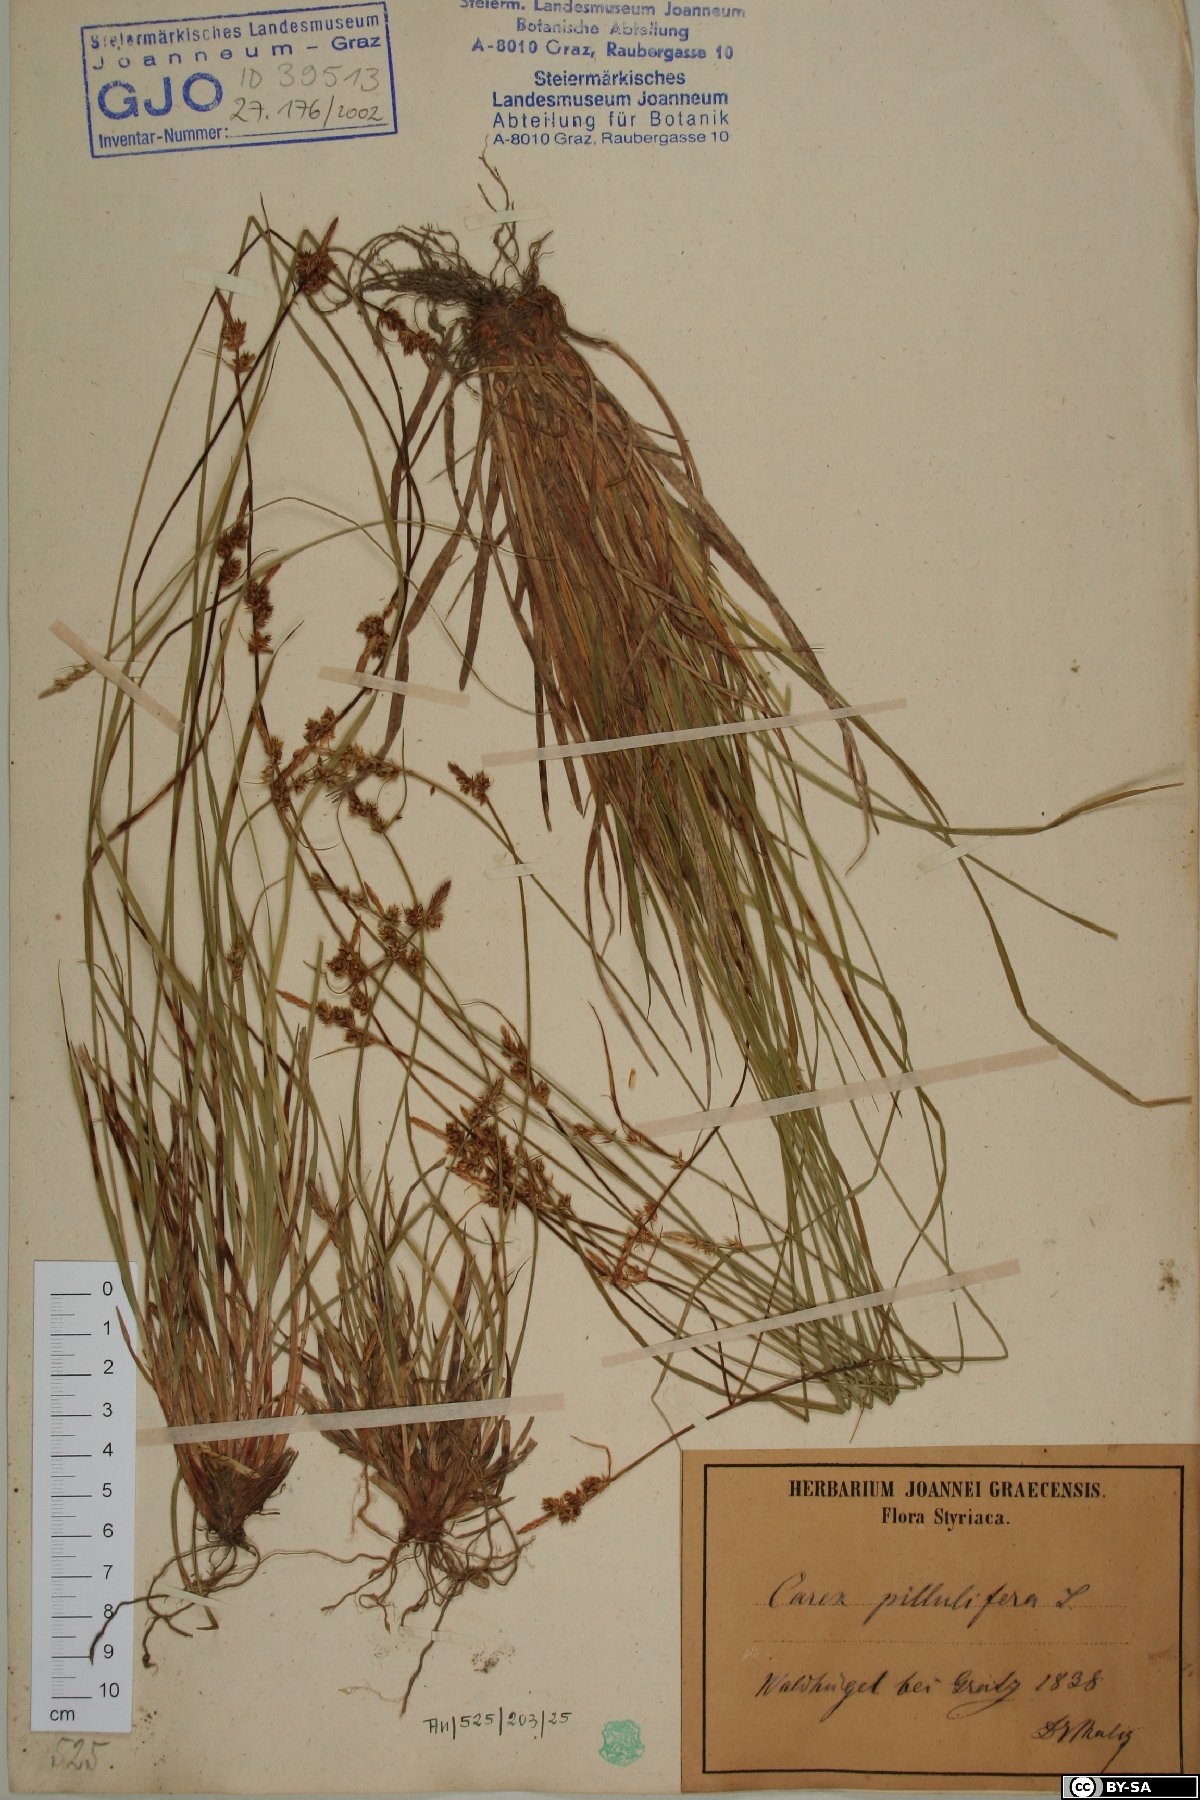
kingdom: Plantae
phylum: Tracheophyta
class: Liliopsida
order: Poales
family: Cyperaceae
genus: Carex
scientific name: Carex pilulifera
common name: Pill sedge
